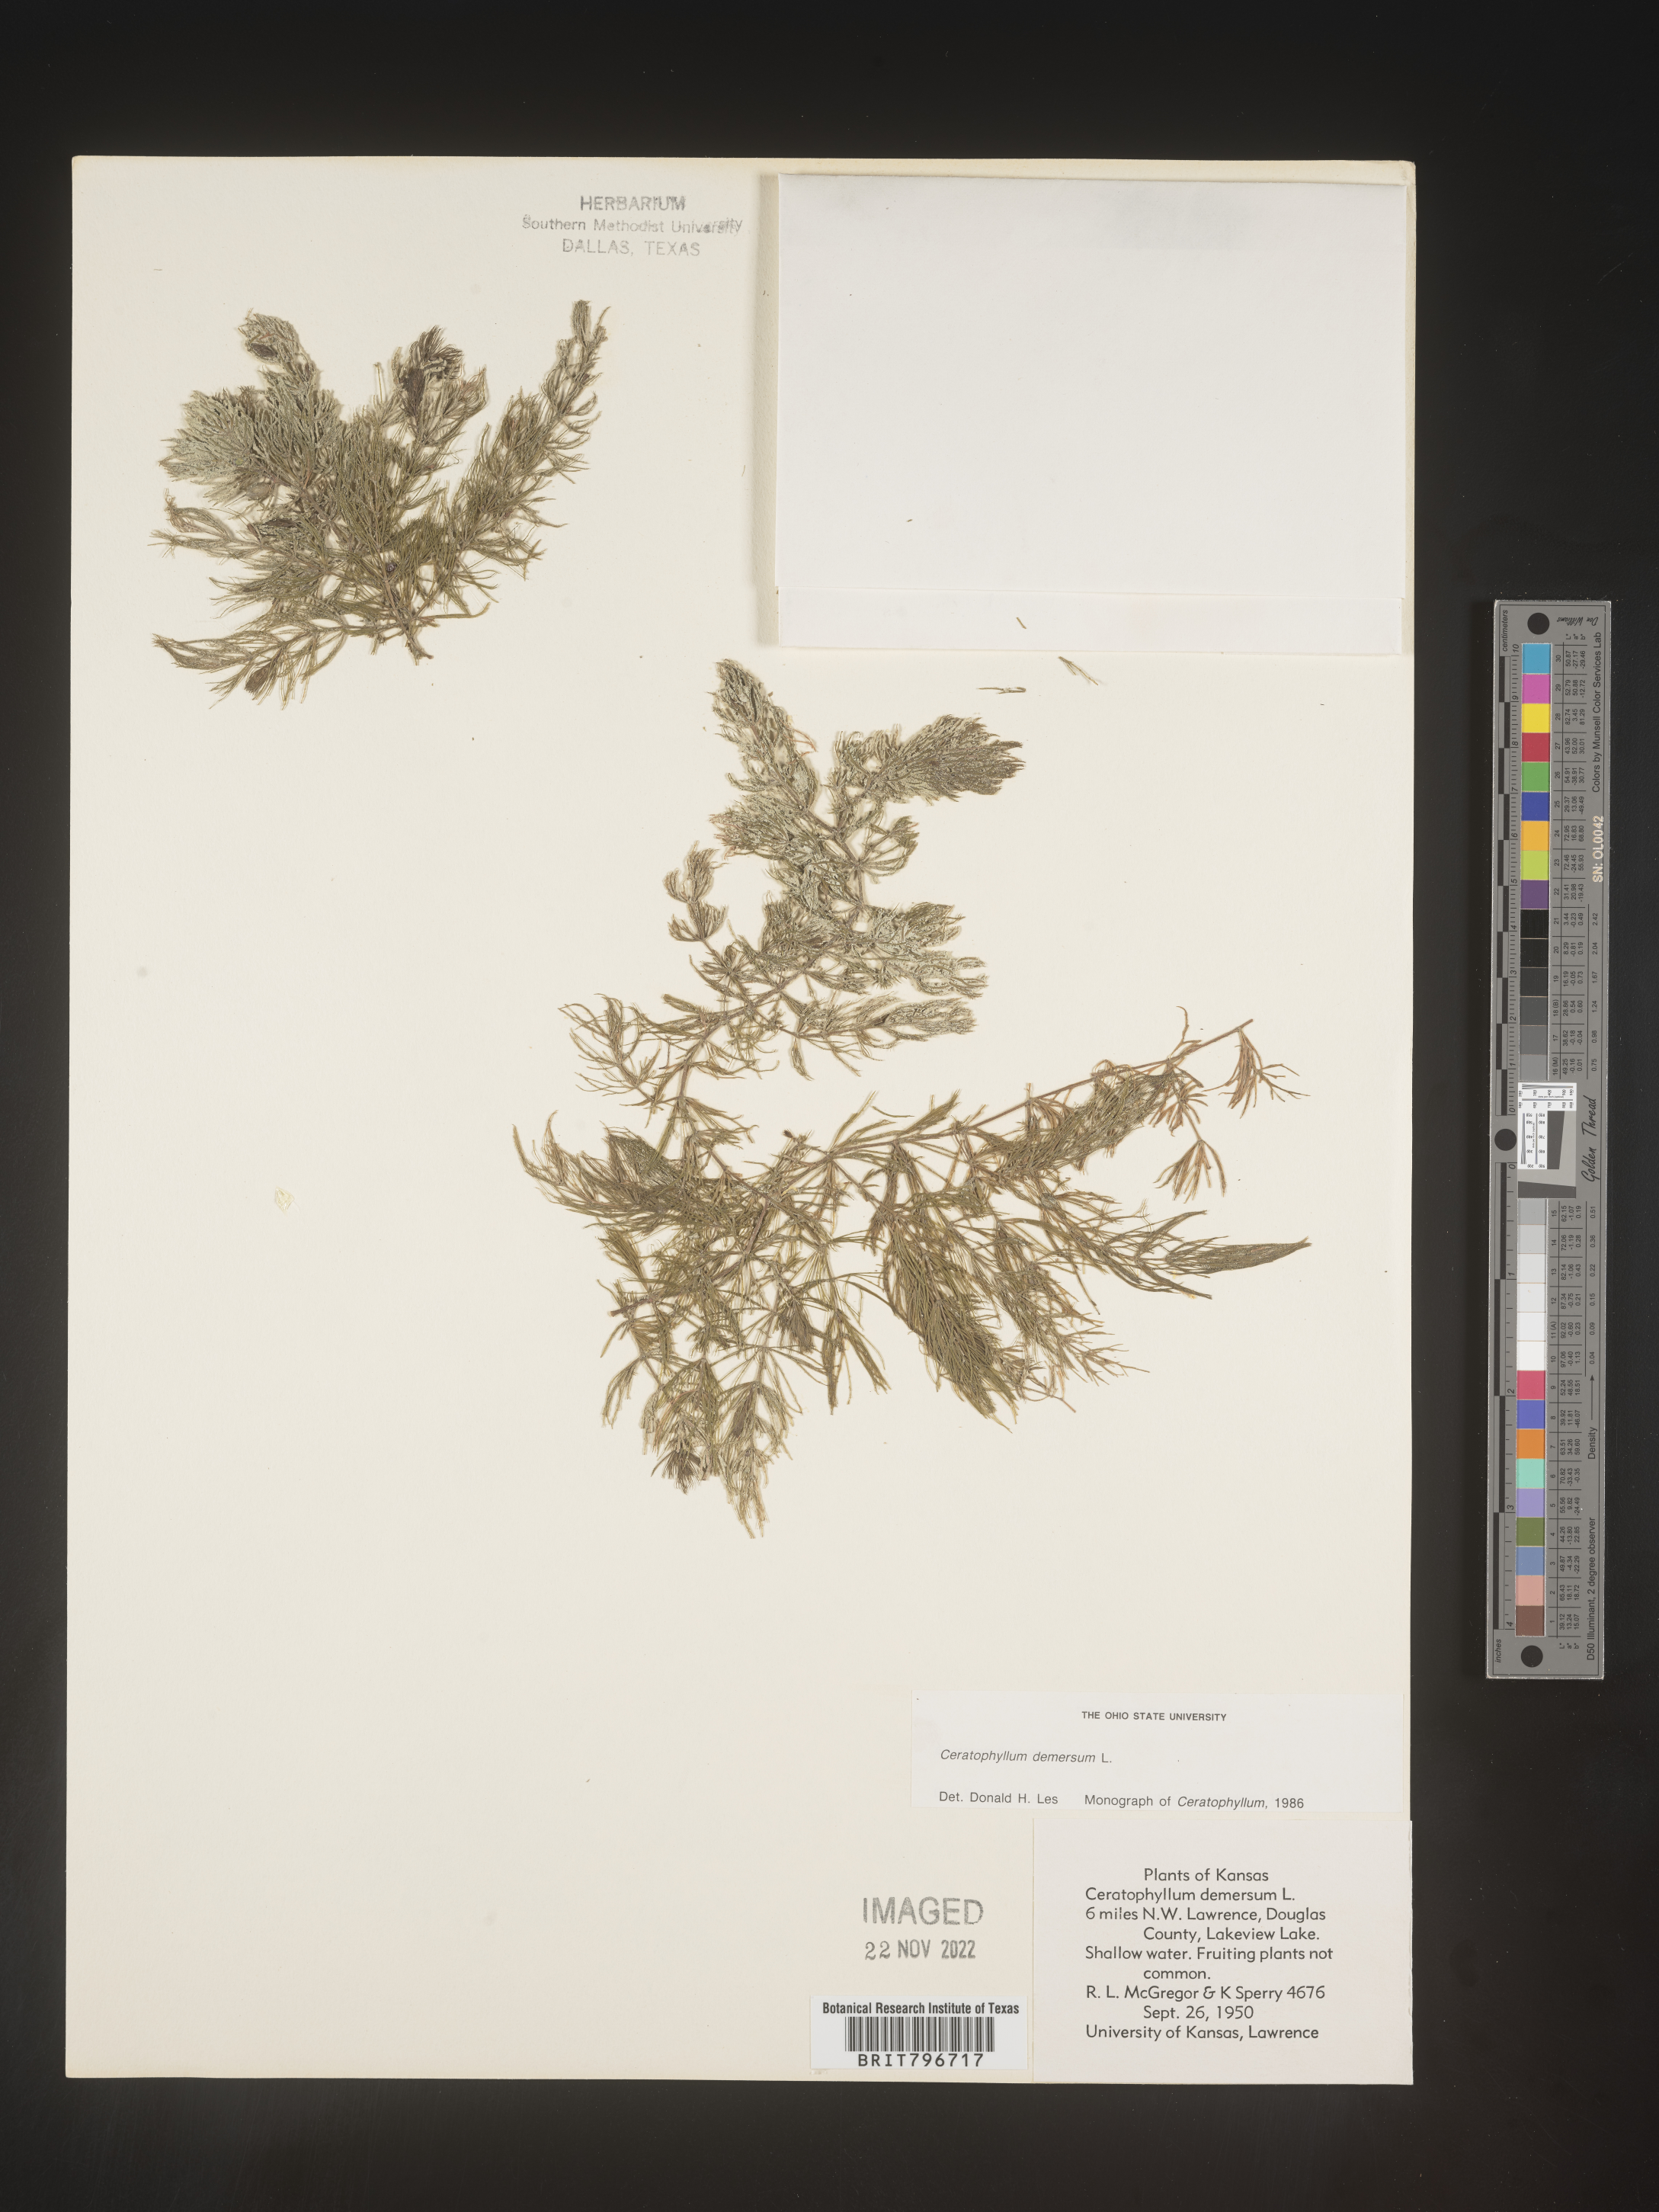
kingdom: Plantae
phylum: Tracheophyta
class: Magnoliopsida
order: Ceratophyllales
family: Ceratophyllaceae
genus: Ceratophyllum
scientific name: Ceratophyllum demersum
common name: Rigid hornwort
